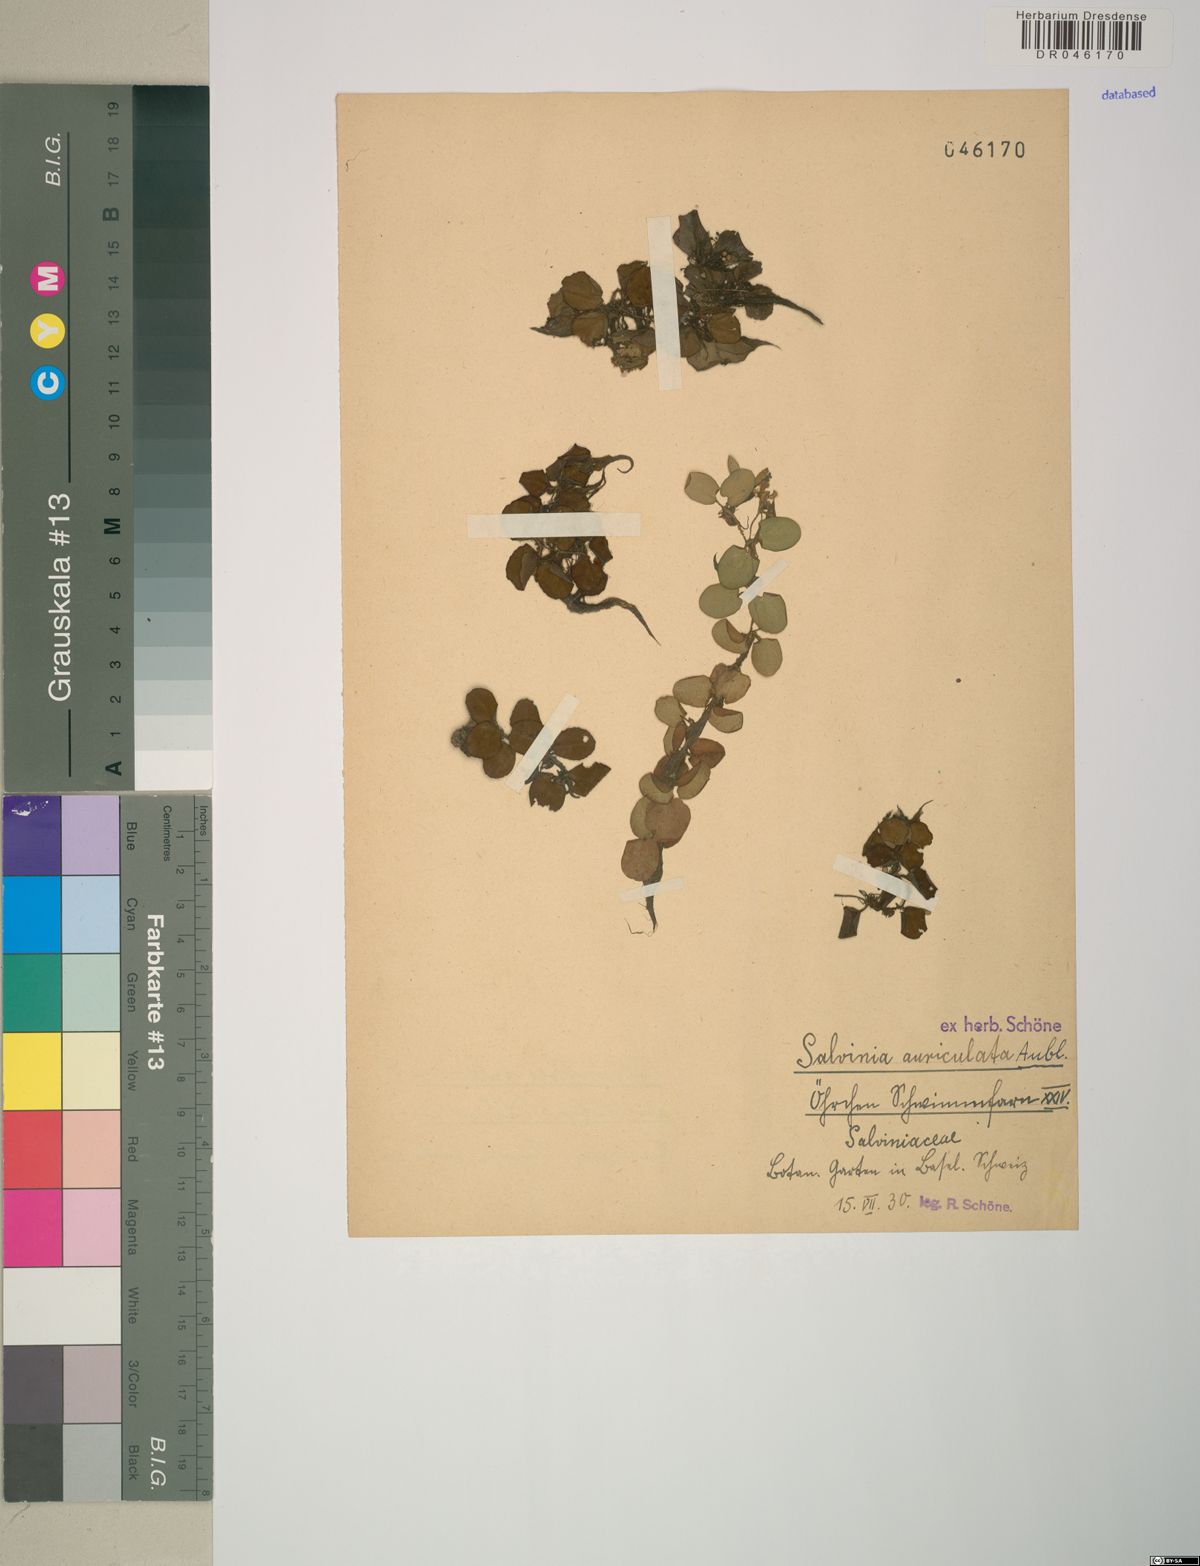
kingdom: Plantae
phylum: Tracheophyta
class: Polypodiopsida
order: Salviniales
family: Salviniaceae
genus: Salvinia
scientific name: Salvinia auriculata
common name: African payal
